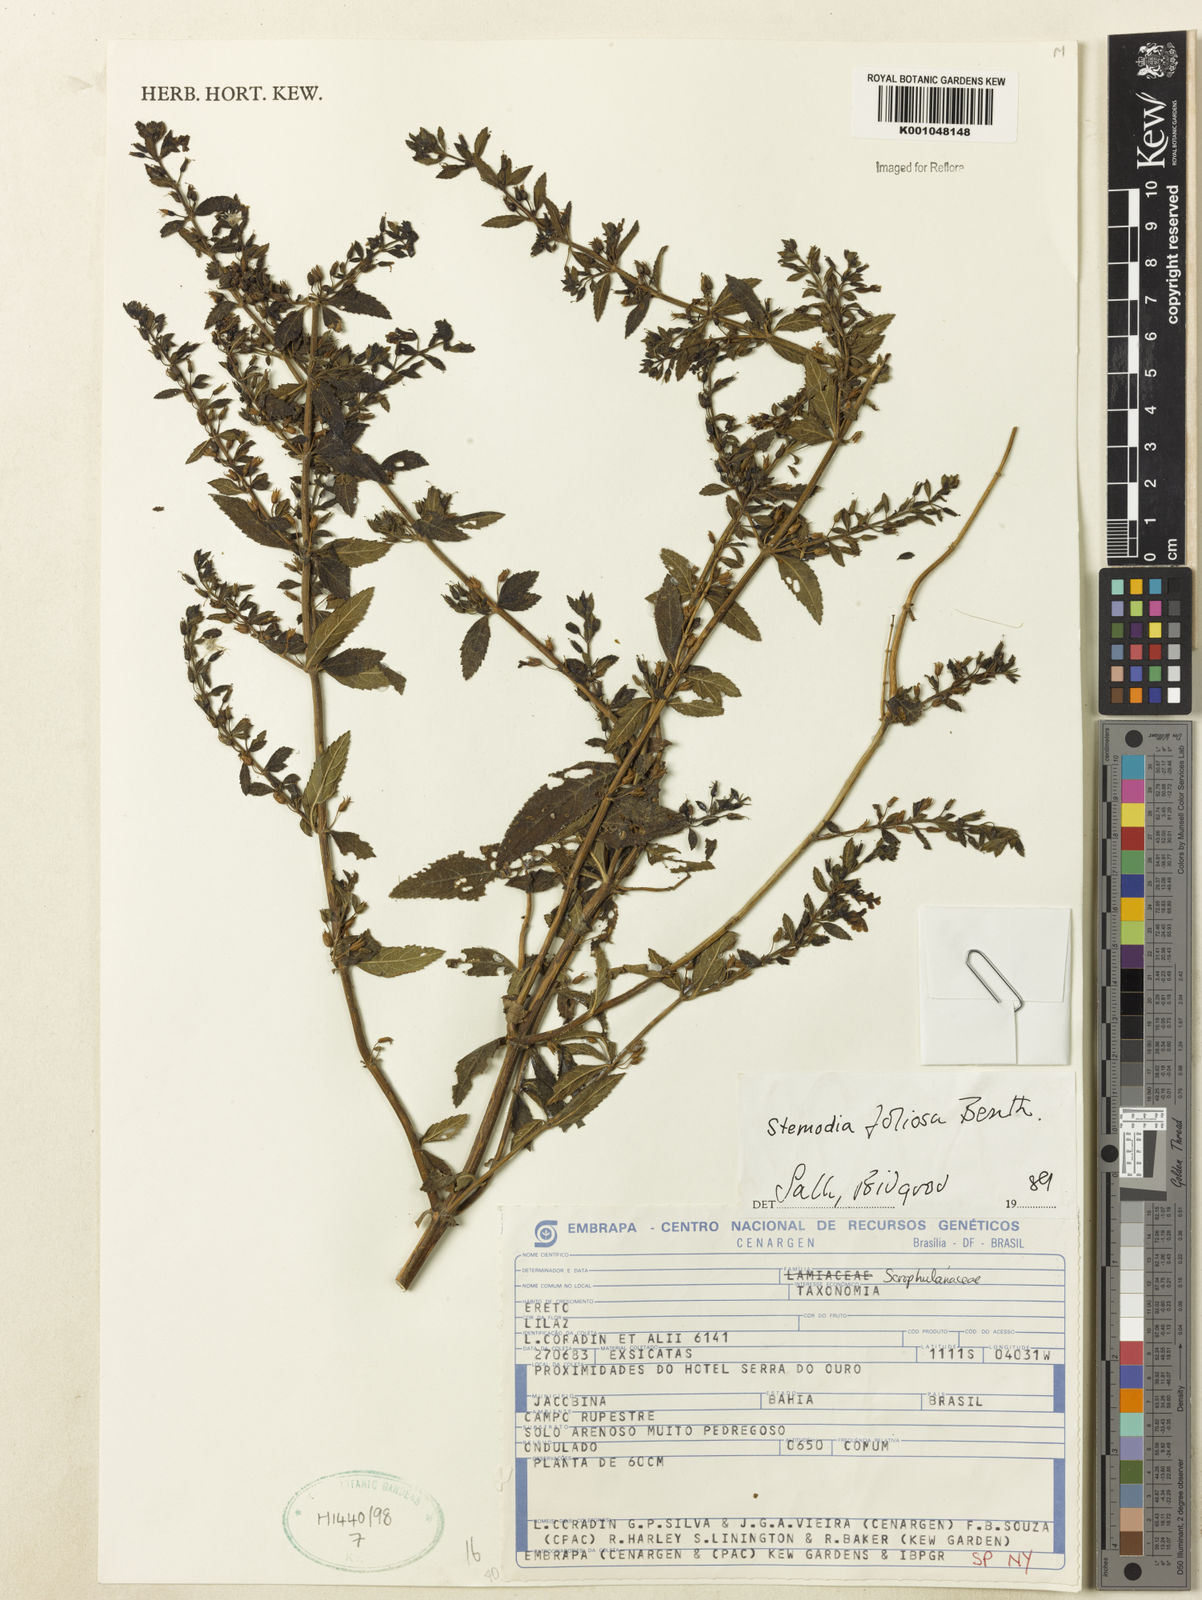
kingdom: Plantae
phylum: Tracheophyta
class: Magnoliopsida
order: Lamiales
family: Plantaginaceae
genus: Stemodia
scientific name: Stemodia foliosa
